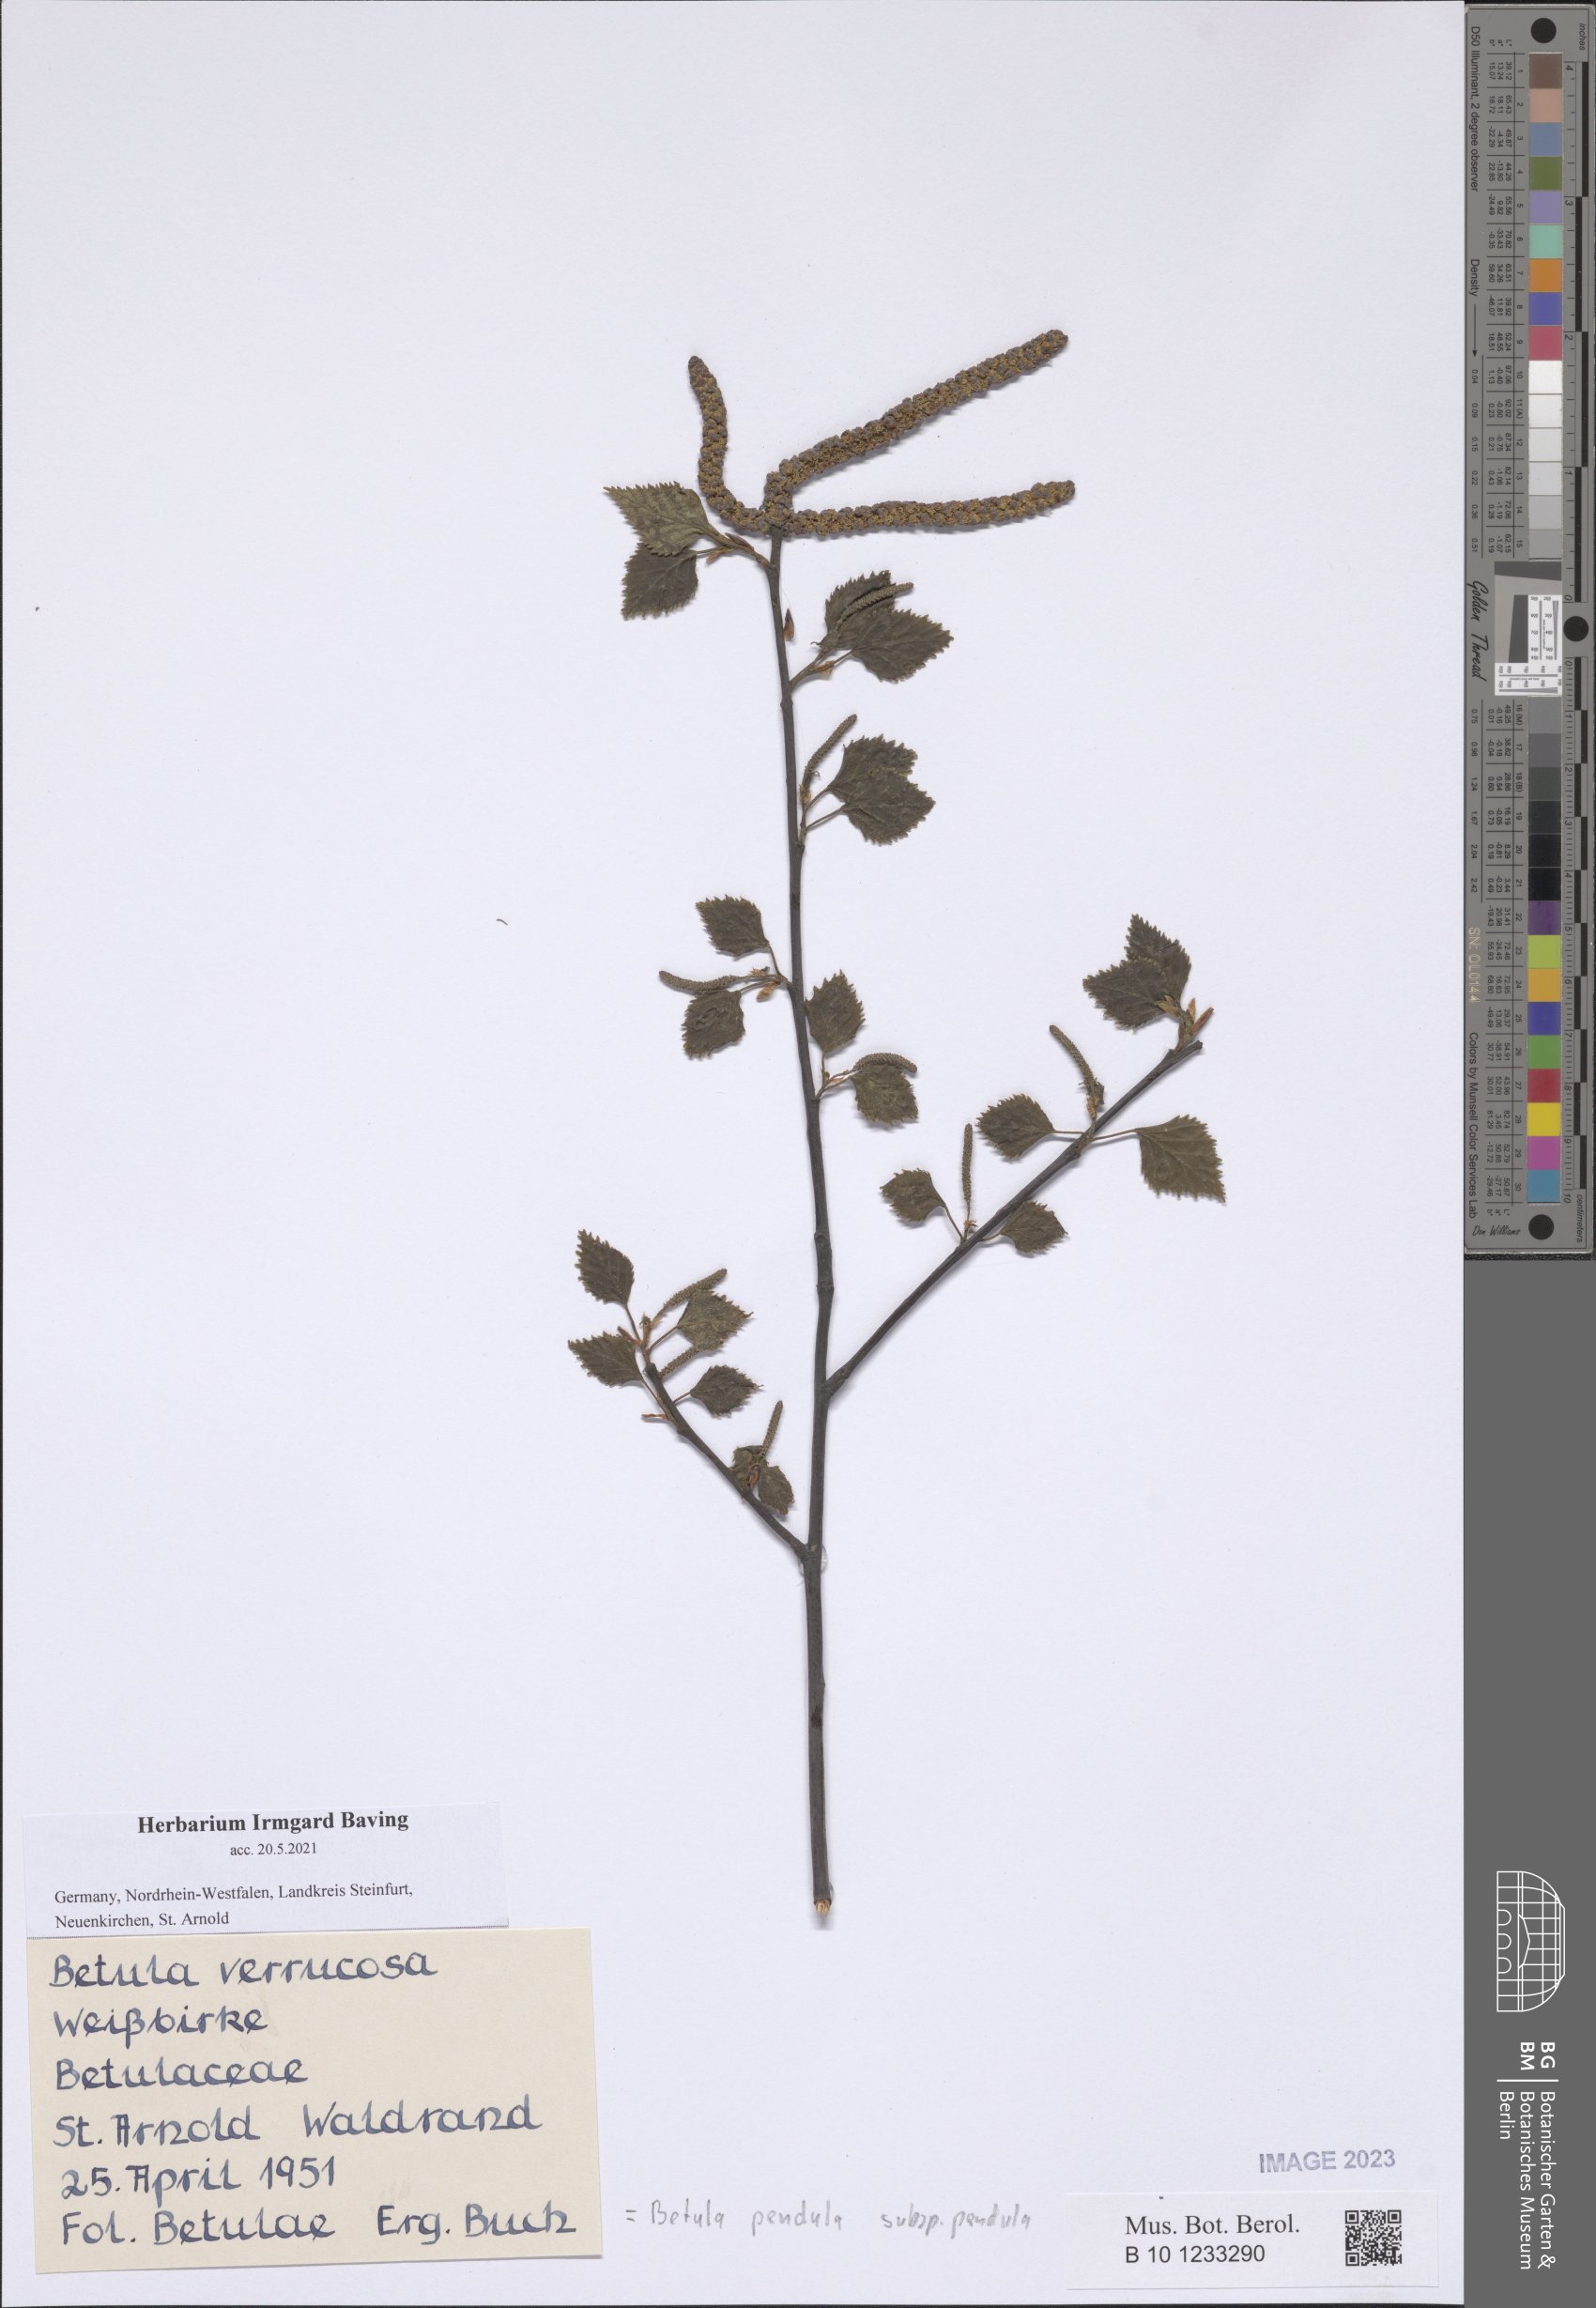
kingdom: Plantae
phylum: Tracheophyta
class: Magnoliopsida
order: Fagales
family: Betulaceae
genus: Betula
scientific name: Betula pendula
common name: Silver birch
